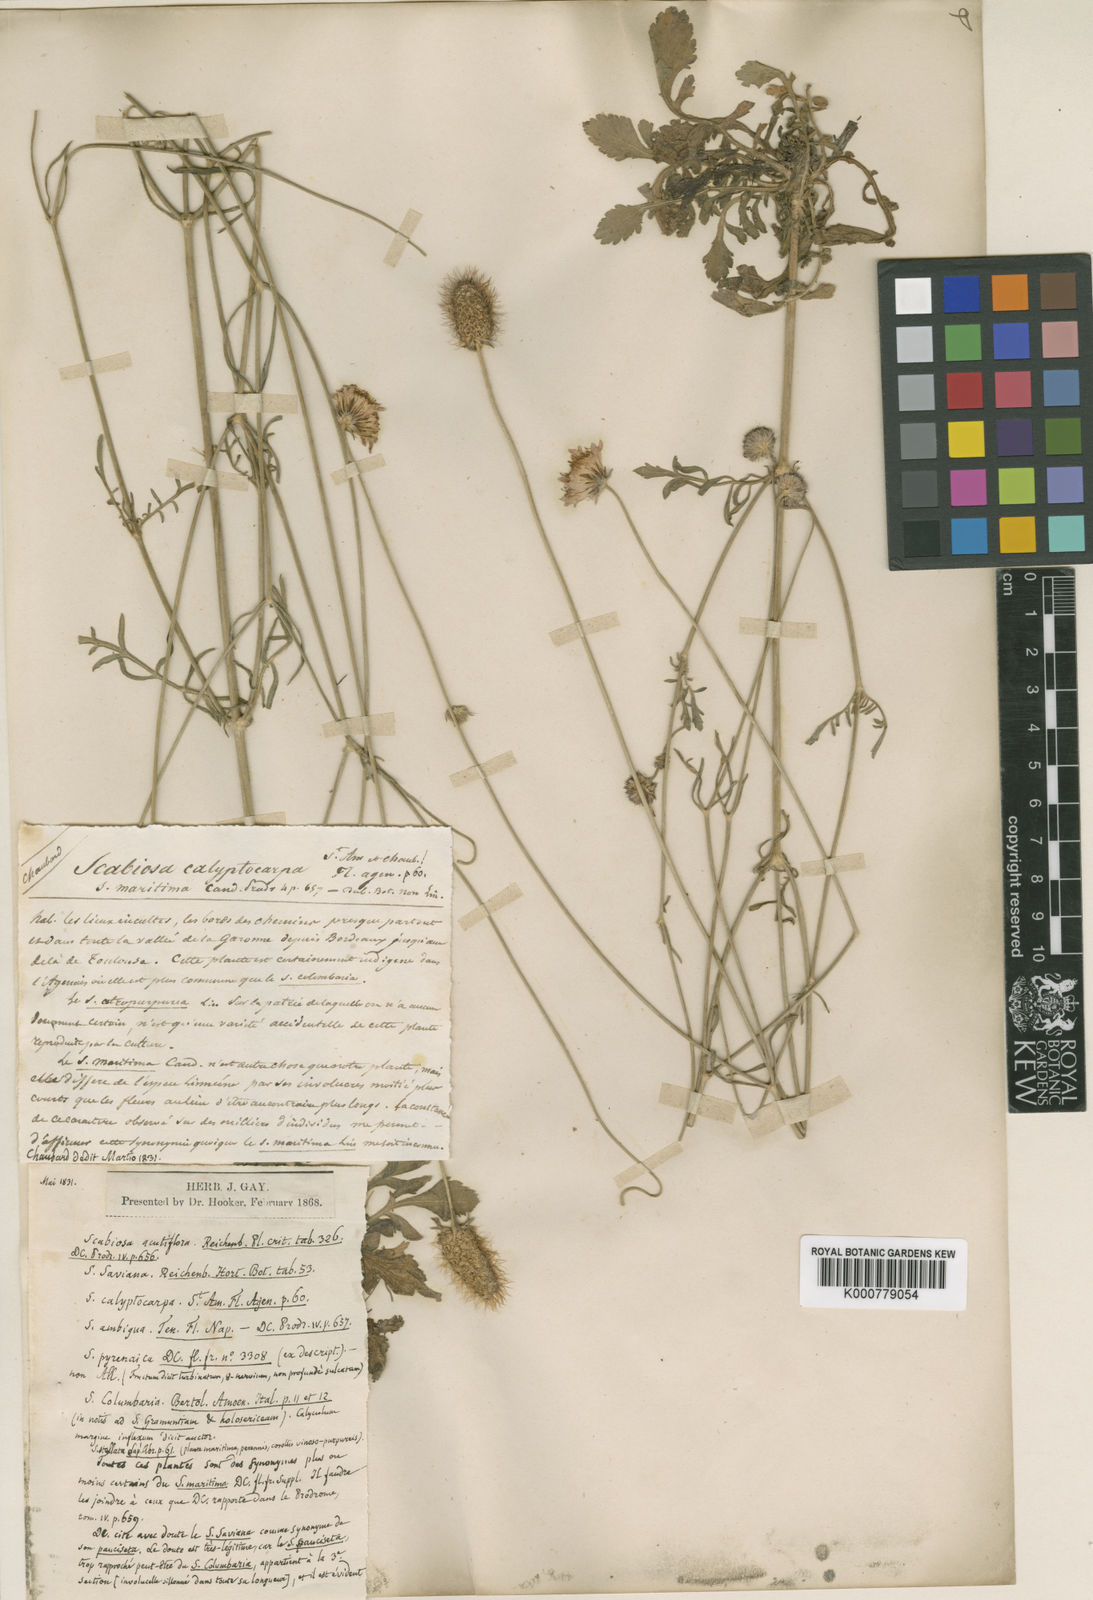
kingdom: Plantae
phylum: Tracheophyta
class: Magnoliopsida
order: Dipsacales
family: Caprifoliaceae
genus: Sixalix
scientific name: Sixalix atropurpurea
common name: Sweet scabious
